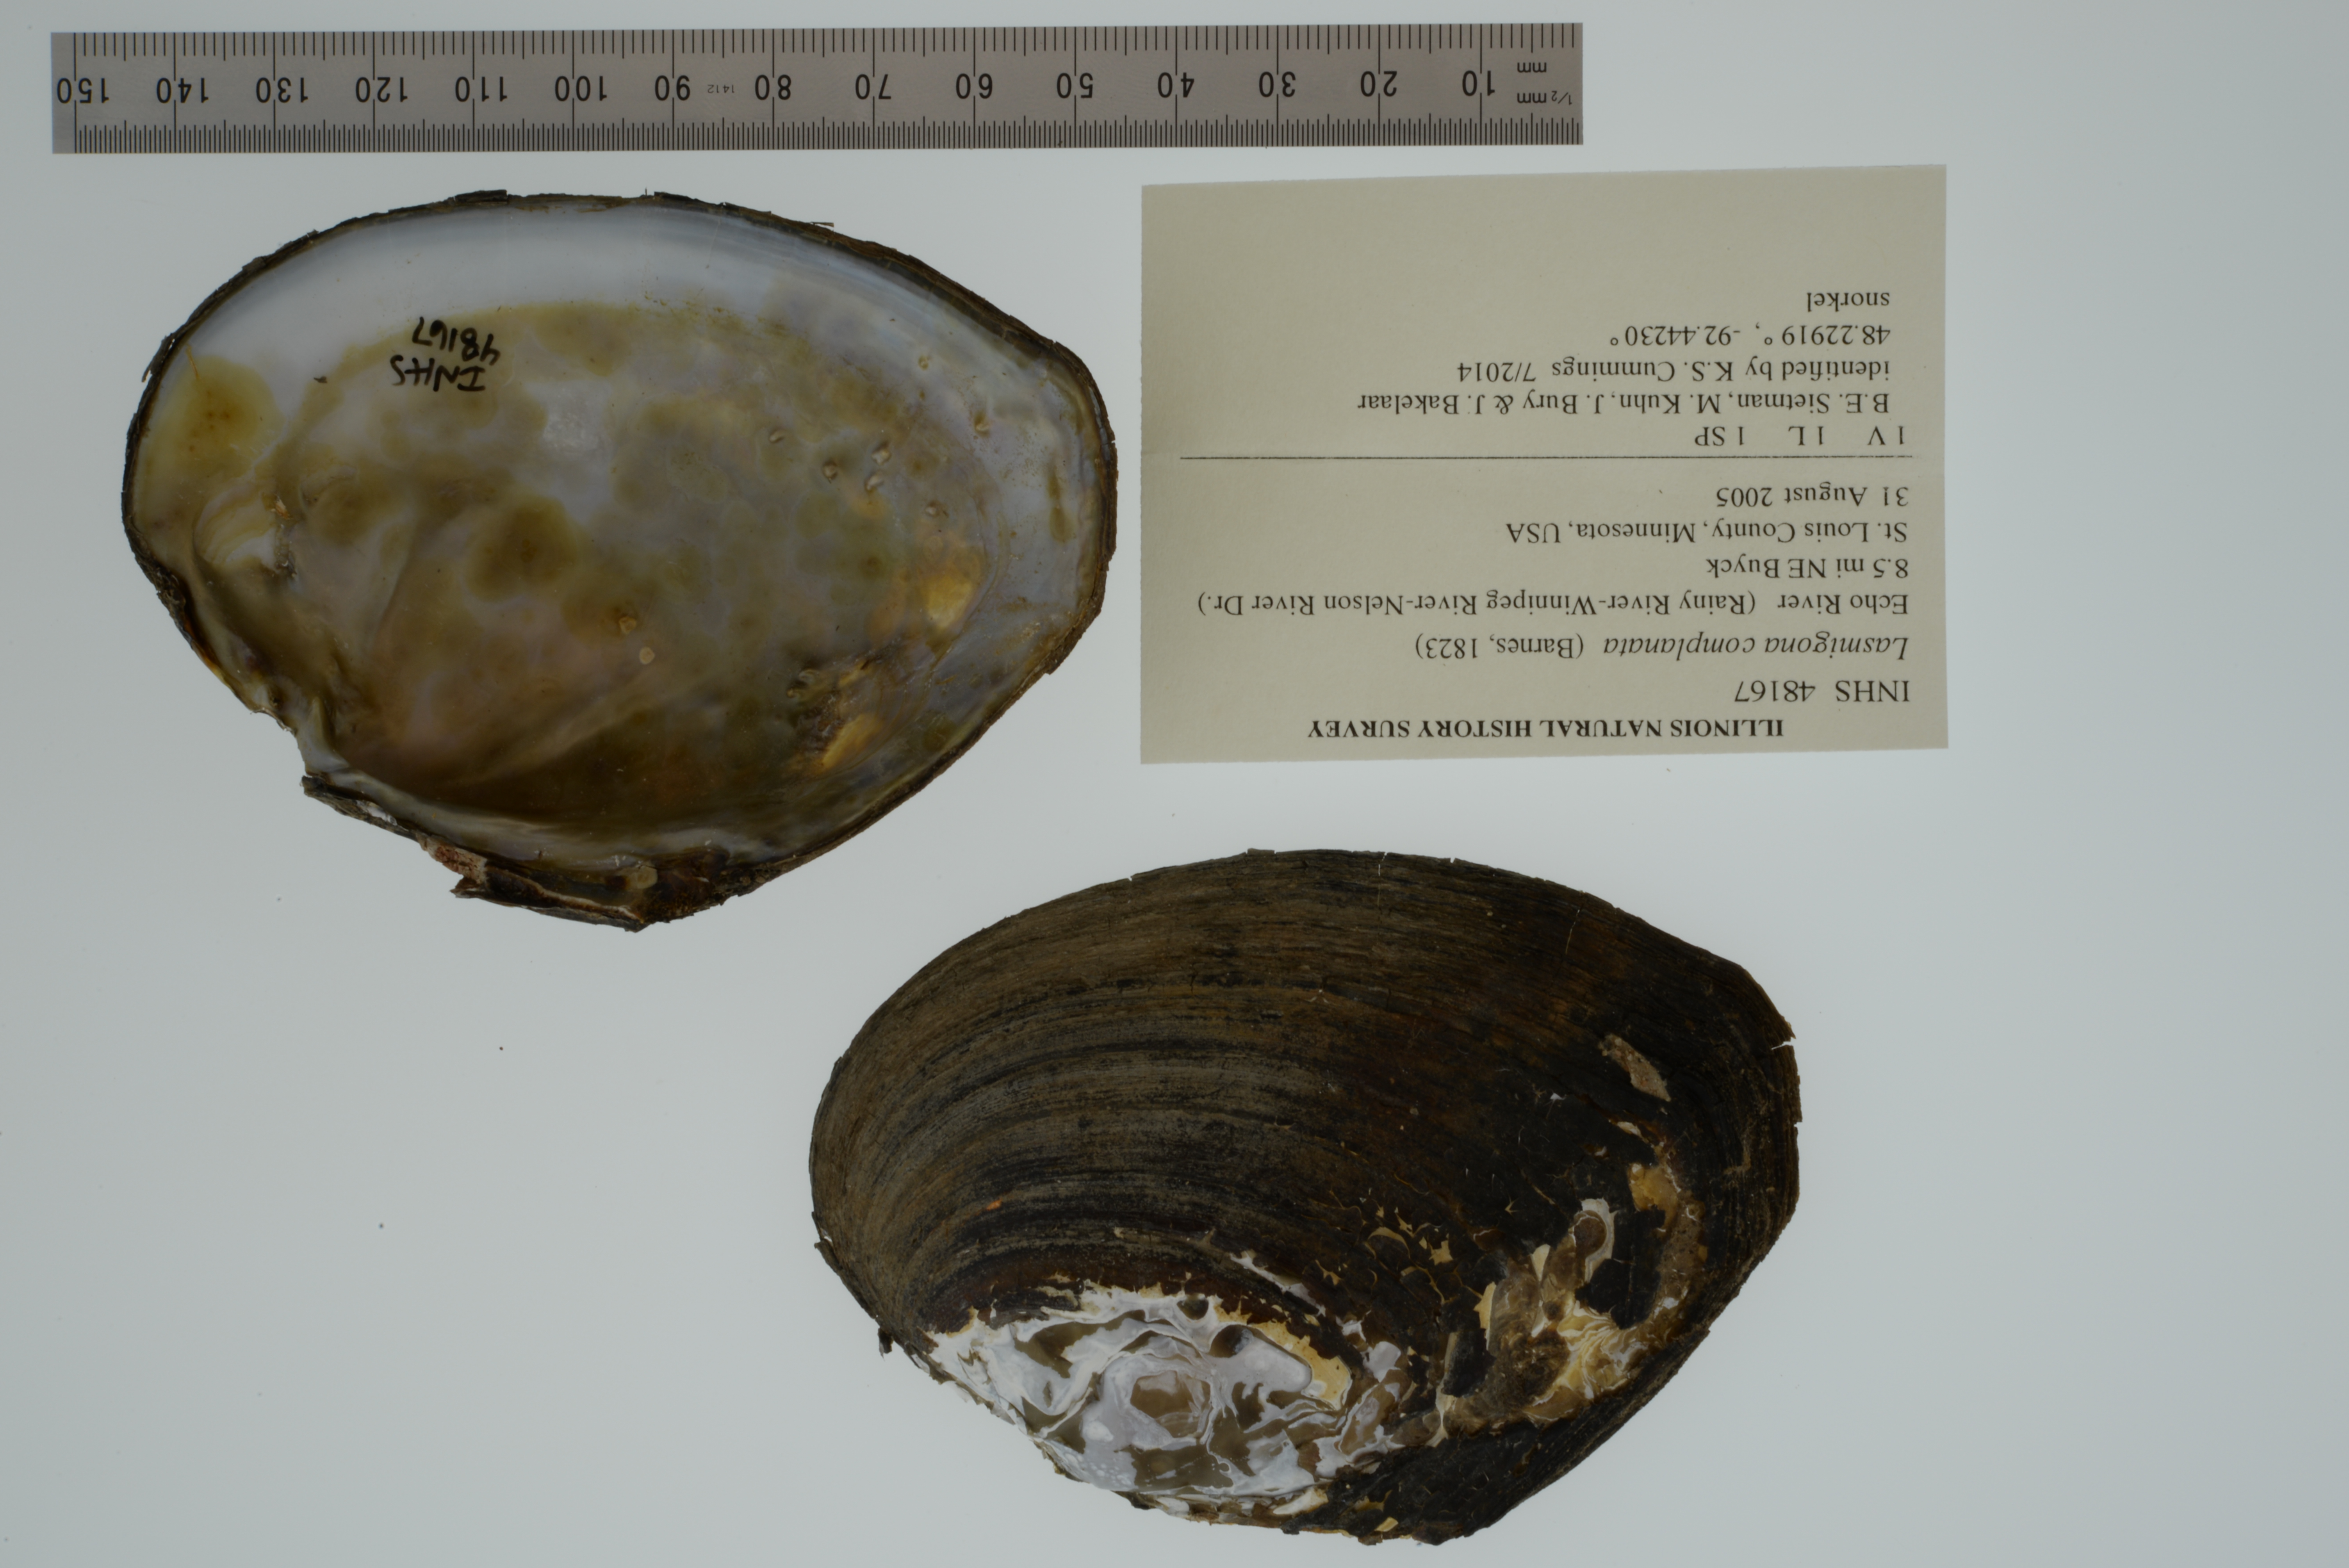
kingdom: Animalia
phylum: Mollusca
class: Bivalvia
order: Unionida
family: Unionidae
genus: Lasmigona
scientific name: Lasmigona complanata
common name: White heelsplitter
